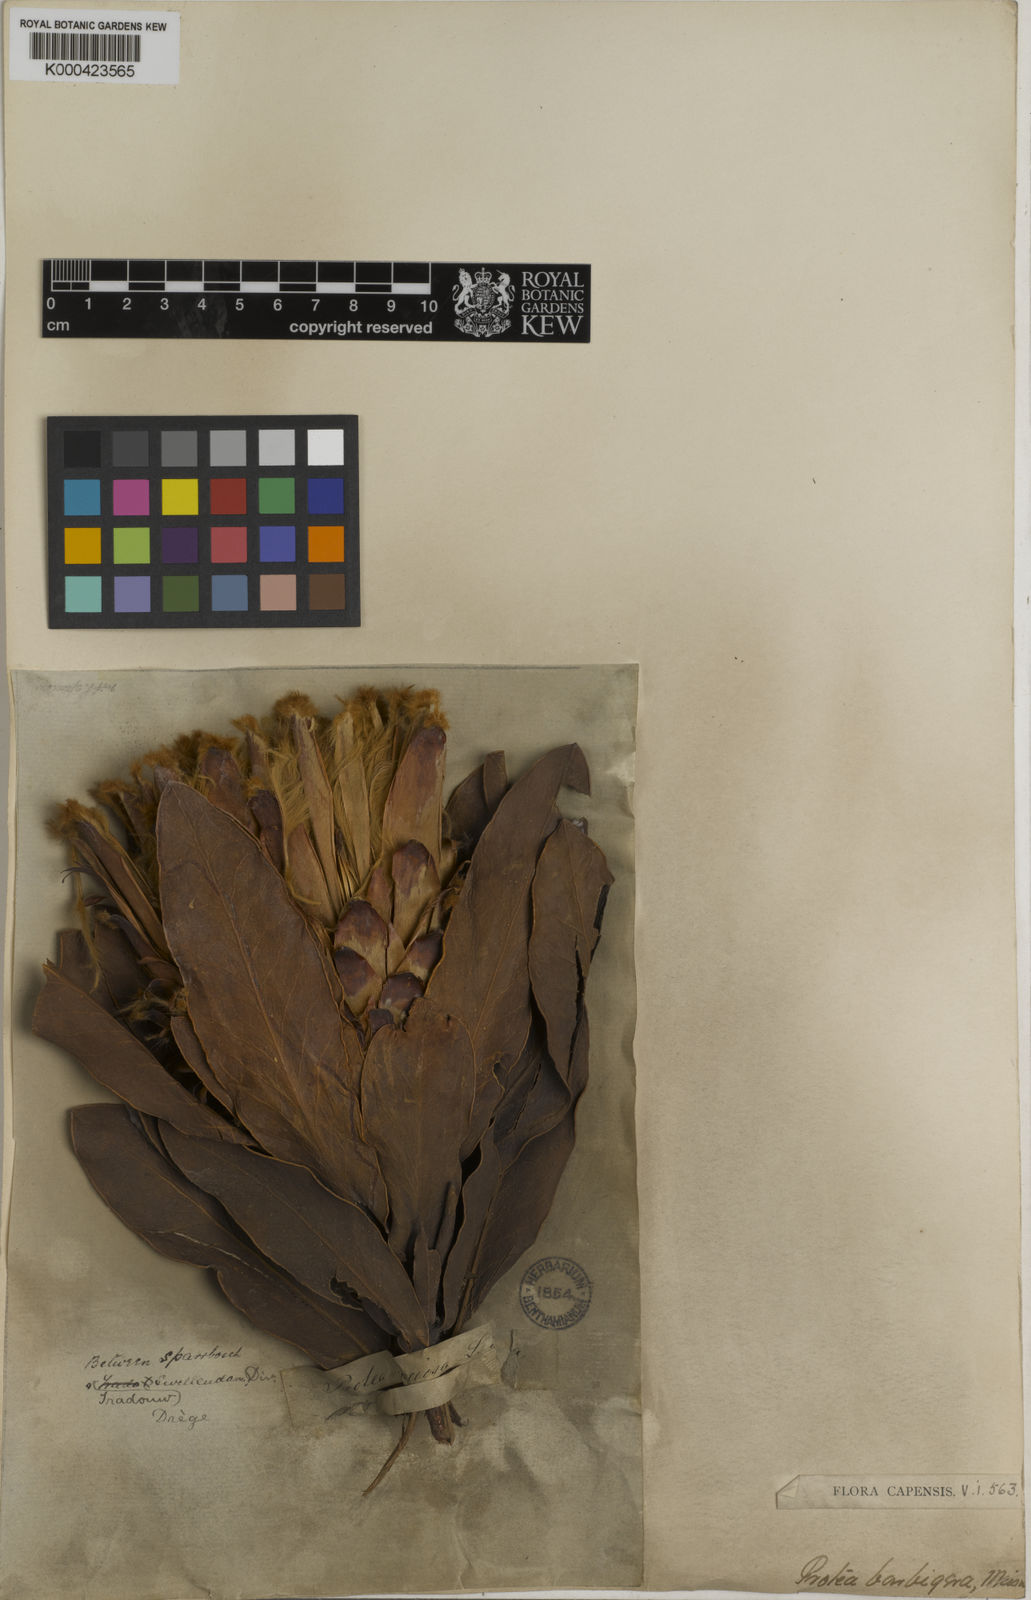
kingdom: Plantae
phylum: Tracheophyta
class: Magnoliopsida
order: Proteales
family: Proteaceae
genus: Protea
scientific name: Protea magnifica
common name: Bearded sugarbush
